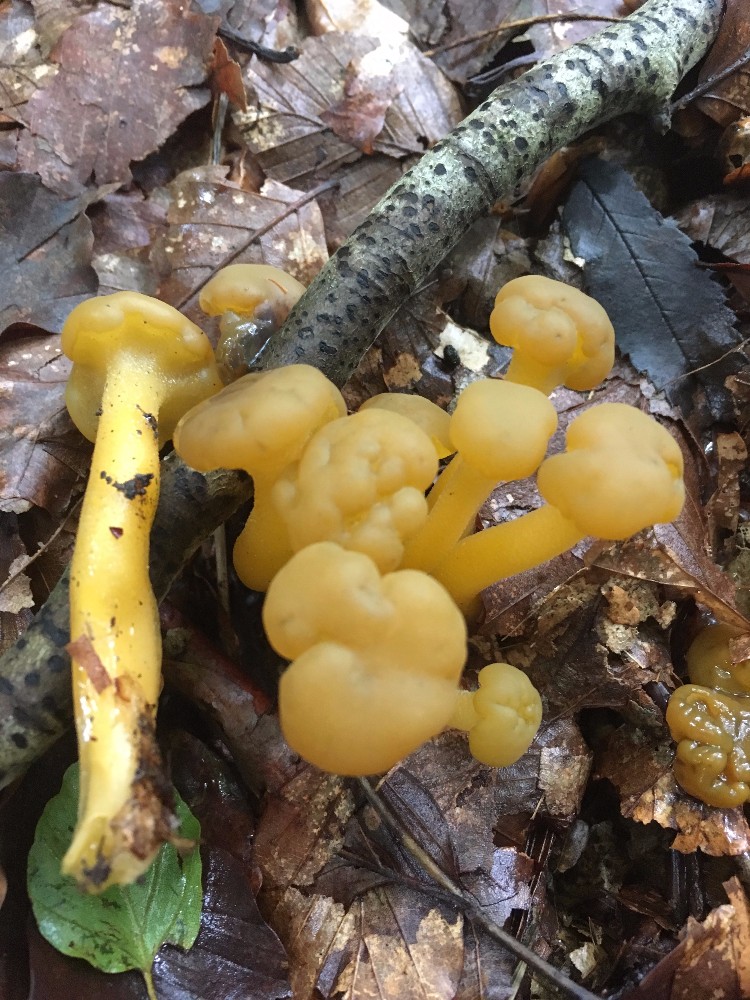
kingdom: Fungi
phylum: Ascomycota
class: Leotiomycetes
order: Leotiales
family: Leotiaceae
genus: Leotia
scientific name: Leotia lubrica
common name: ravsvamp
